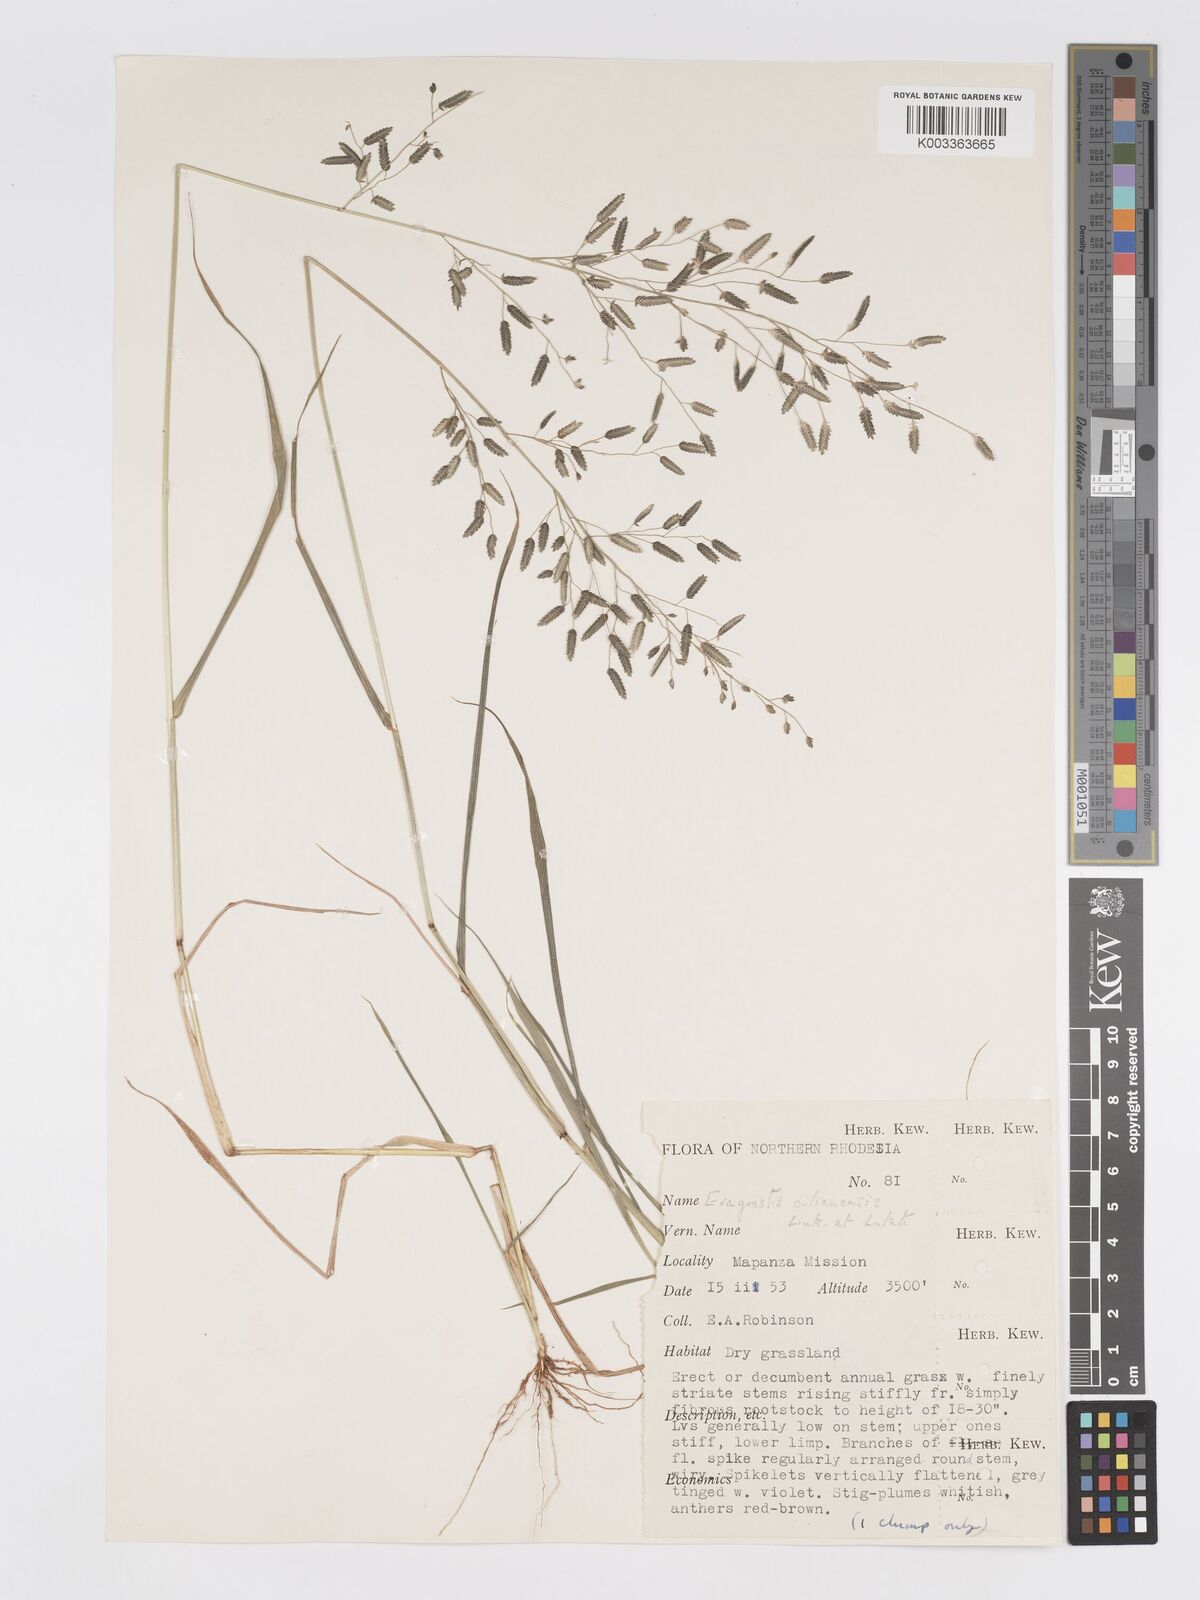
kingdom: Plantae
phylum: Tracheophyta
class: Liliopsida
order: Poales
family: Poaceae
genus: Eragrostis
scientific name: Eragrostis cilianensis
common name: Stinkgrass
